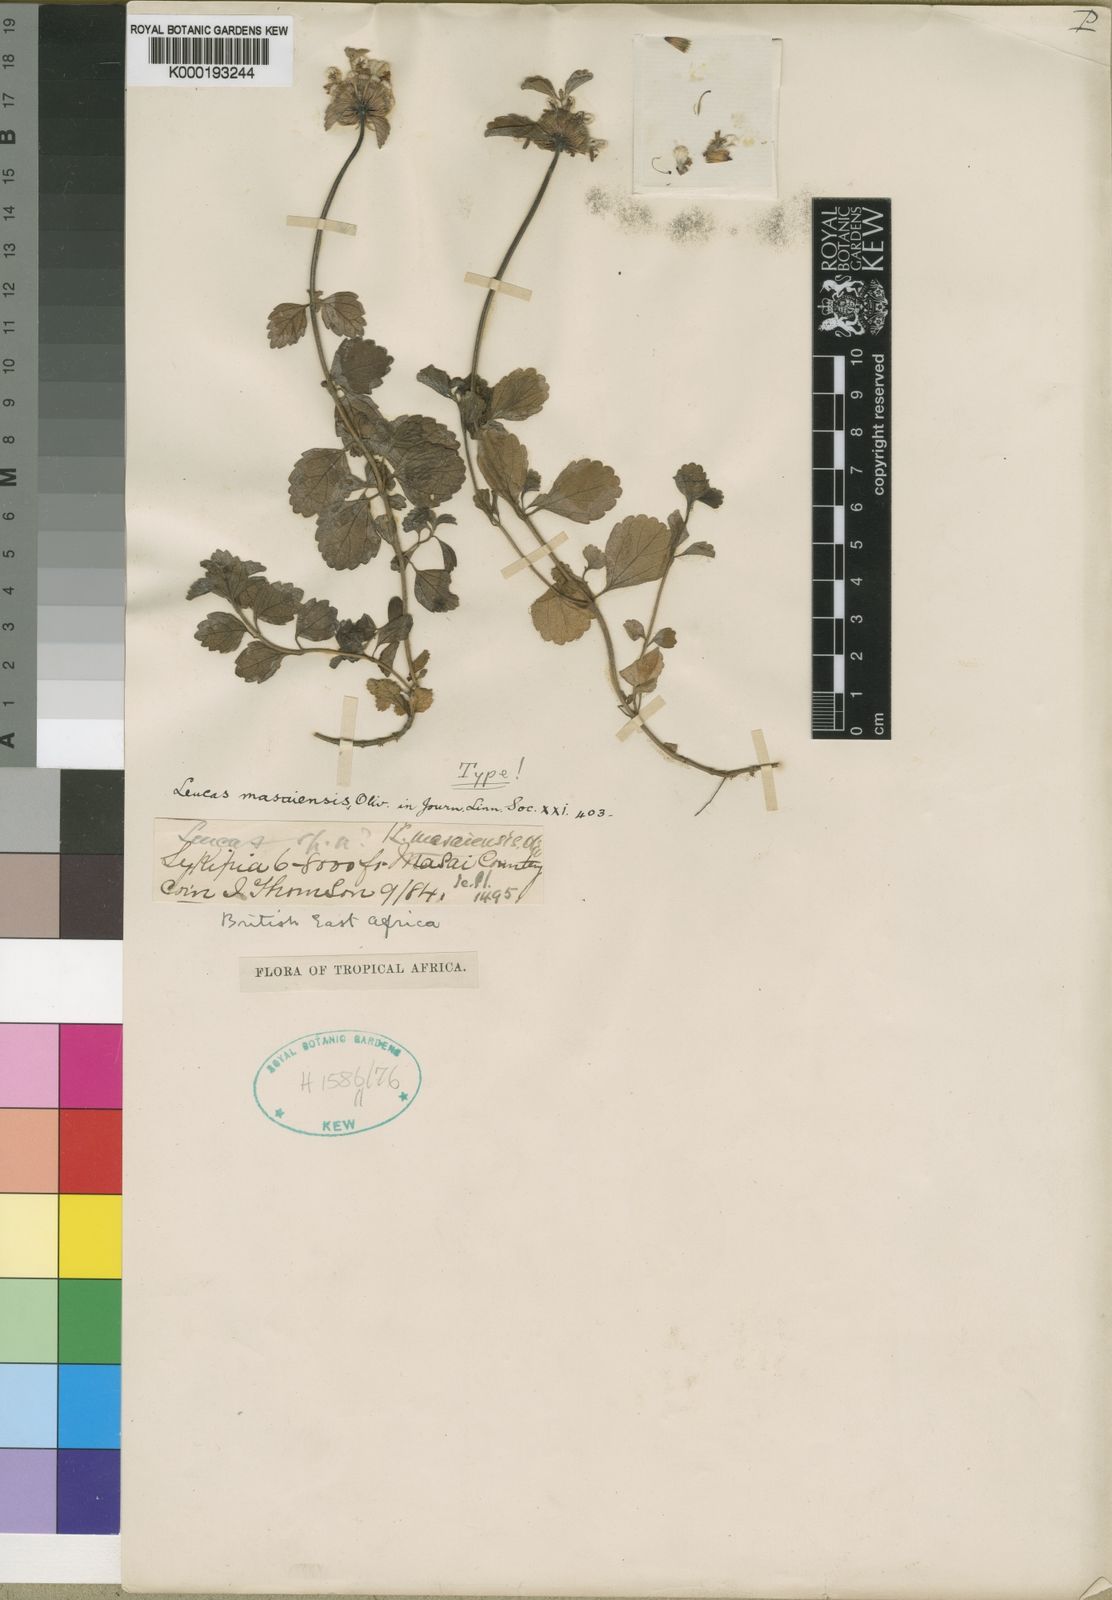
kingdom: Plantae
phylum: Tracheophyta
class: Magnoliopsida
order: Lamiales
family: Lamiaceae
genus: Leucas
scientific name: Leucas masaiensis
